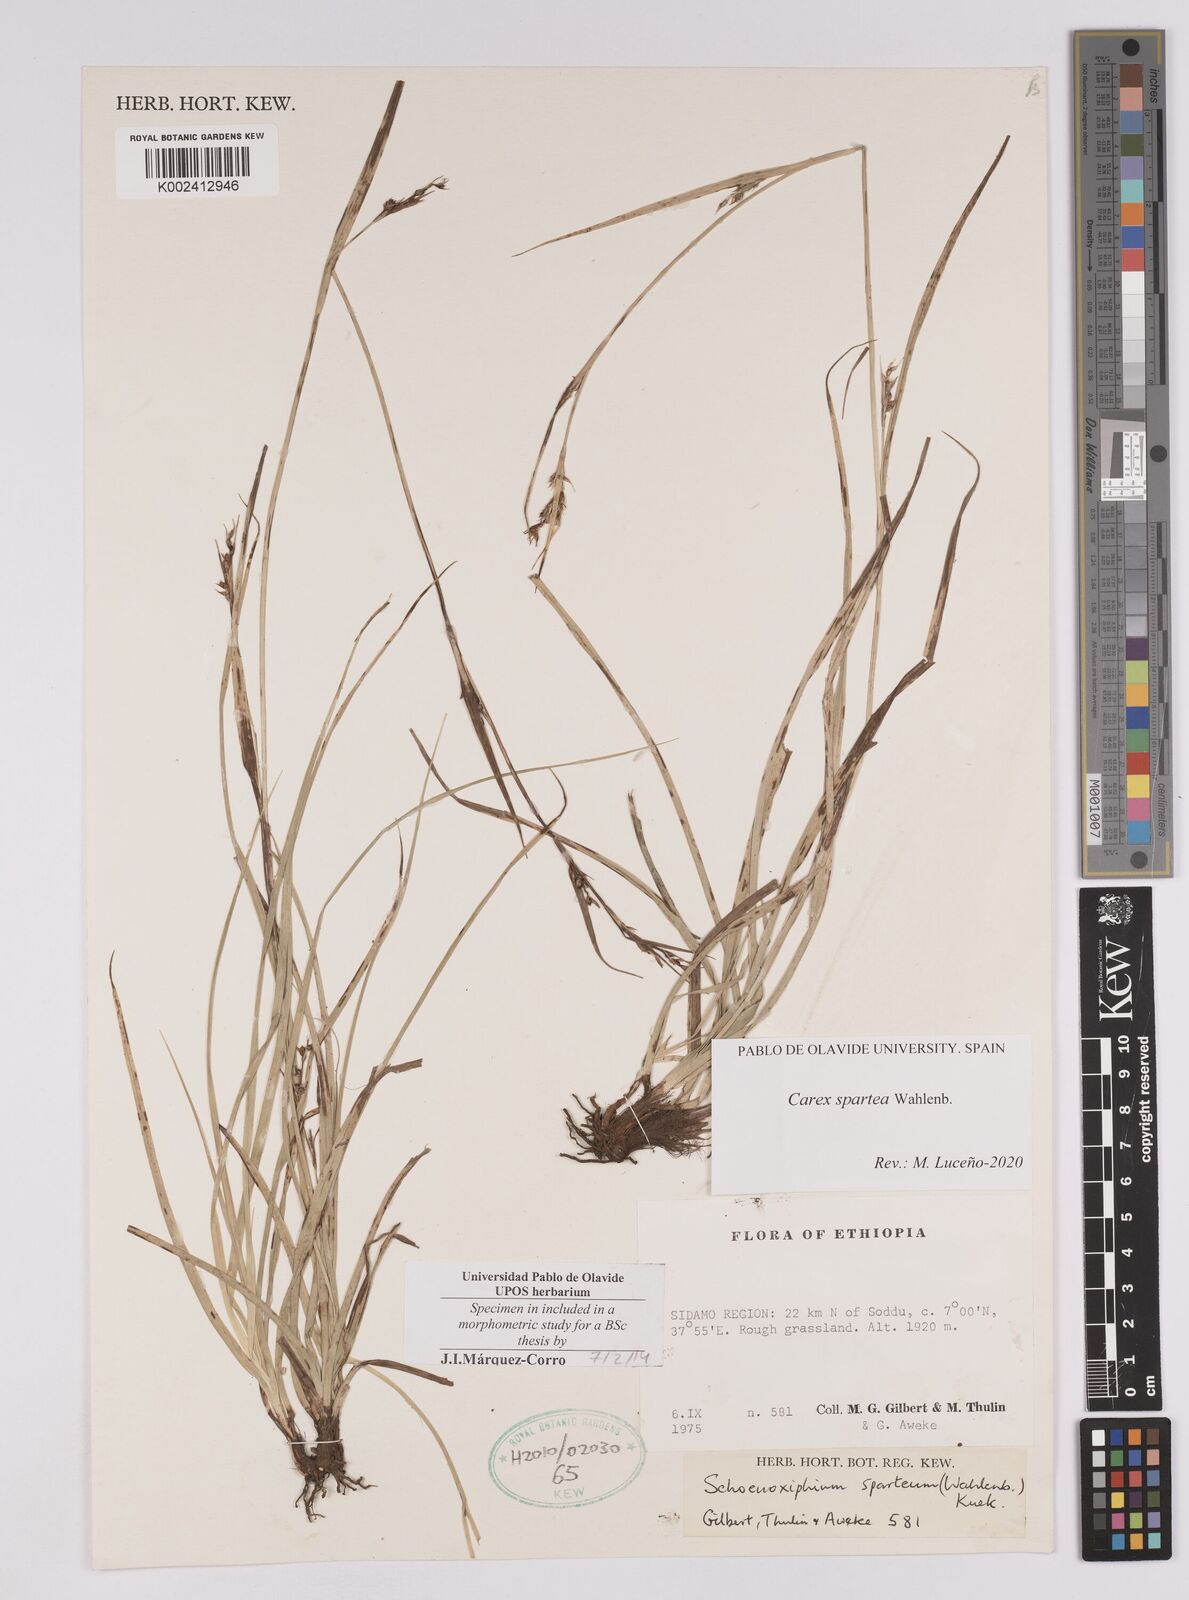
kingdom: Plantae
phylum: Tracheophyta
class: Liliopsida
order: Poales
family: Cyperaceae
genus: Carex
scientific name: Carex schimperiana
